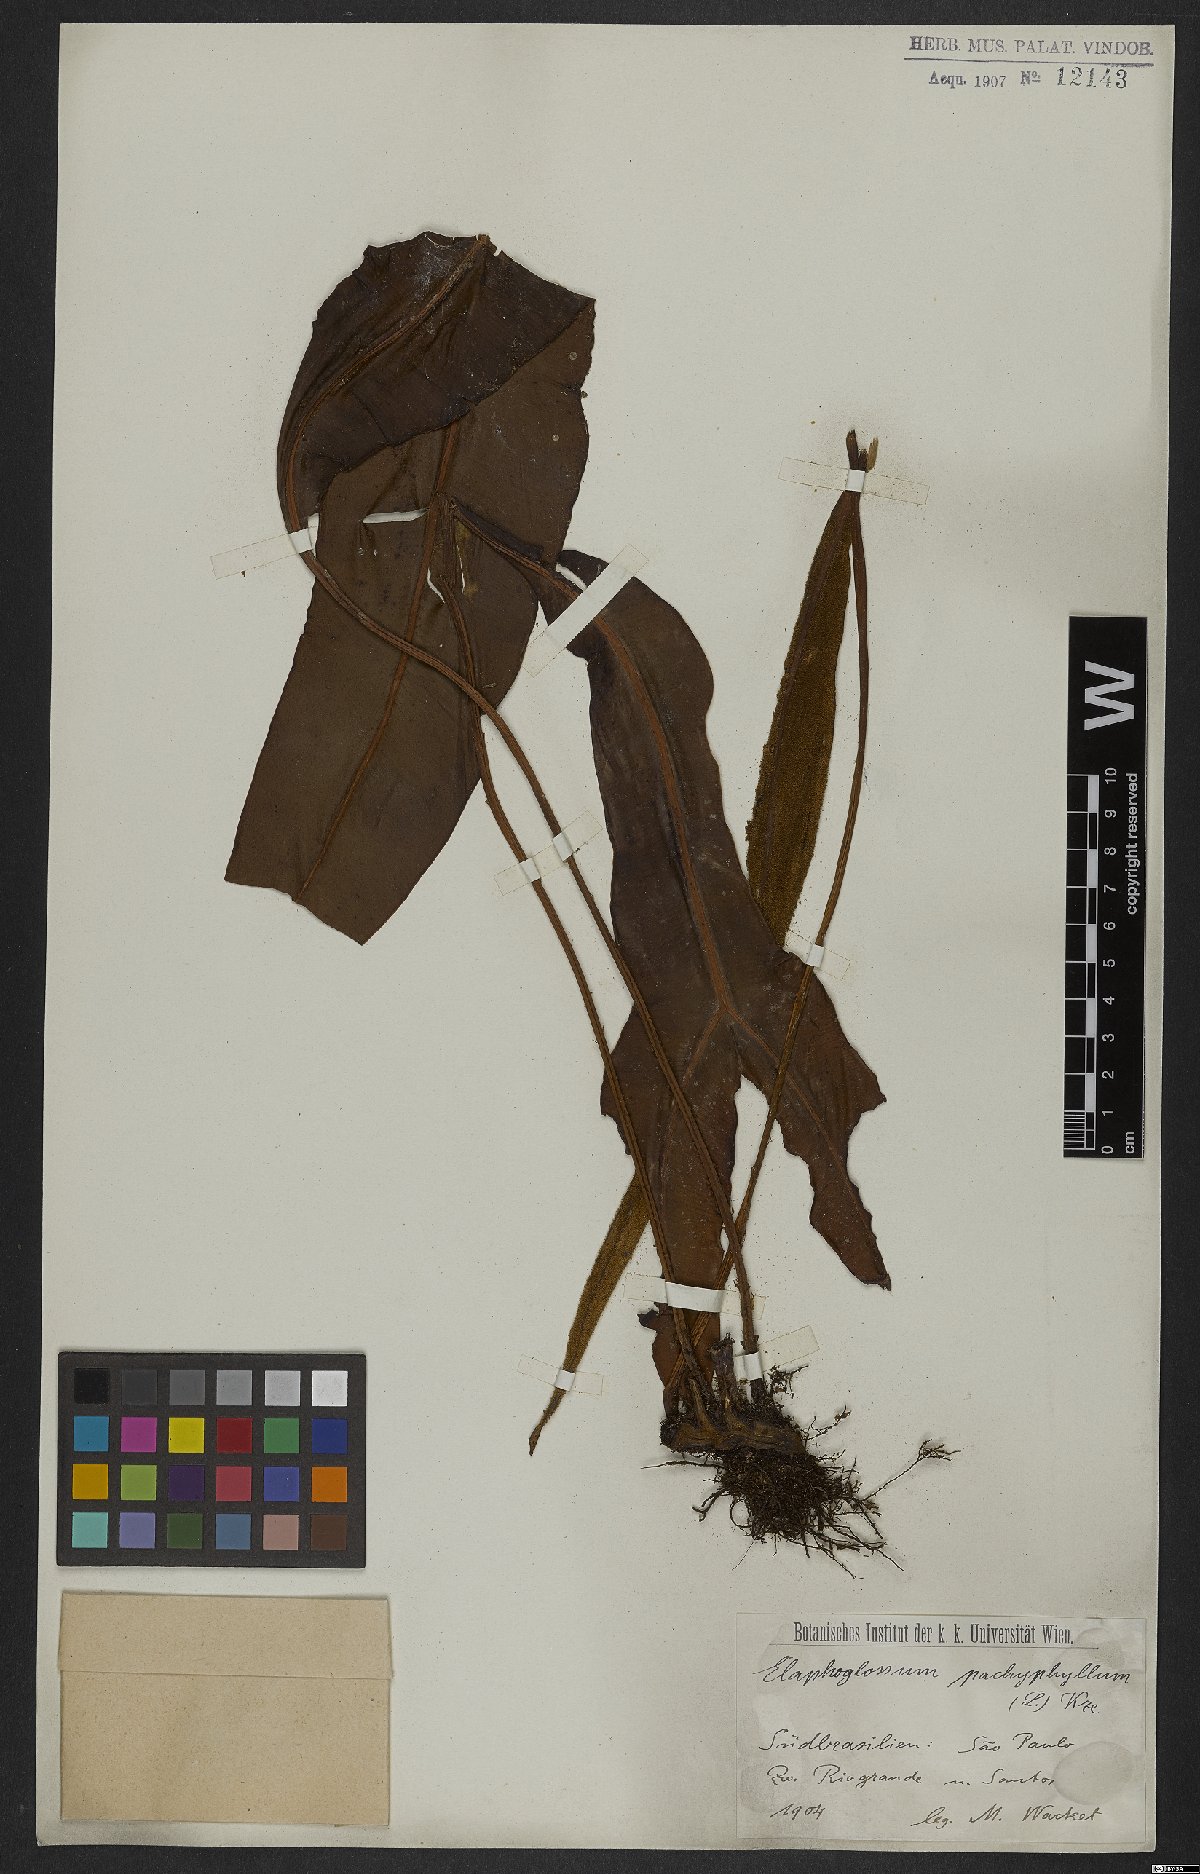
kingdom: Plantae
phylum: Tracheophyta
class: Polypodiopsida
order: Polypodiales
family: Dryopteridaceae
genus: Elaphoglossum
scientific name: Elaphoglossum pachyphyllum
